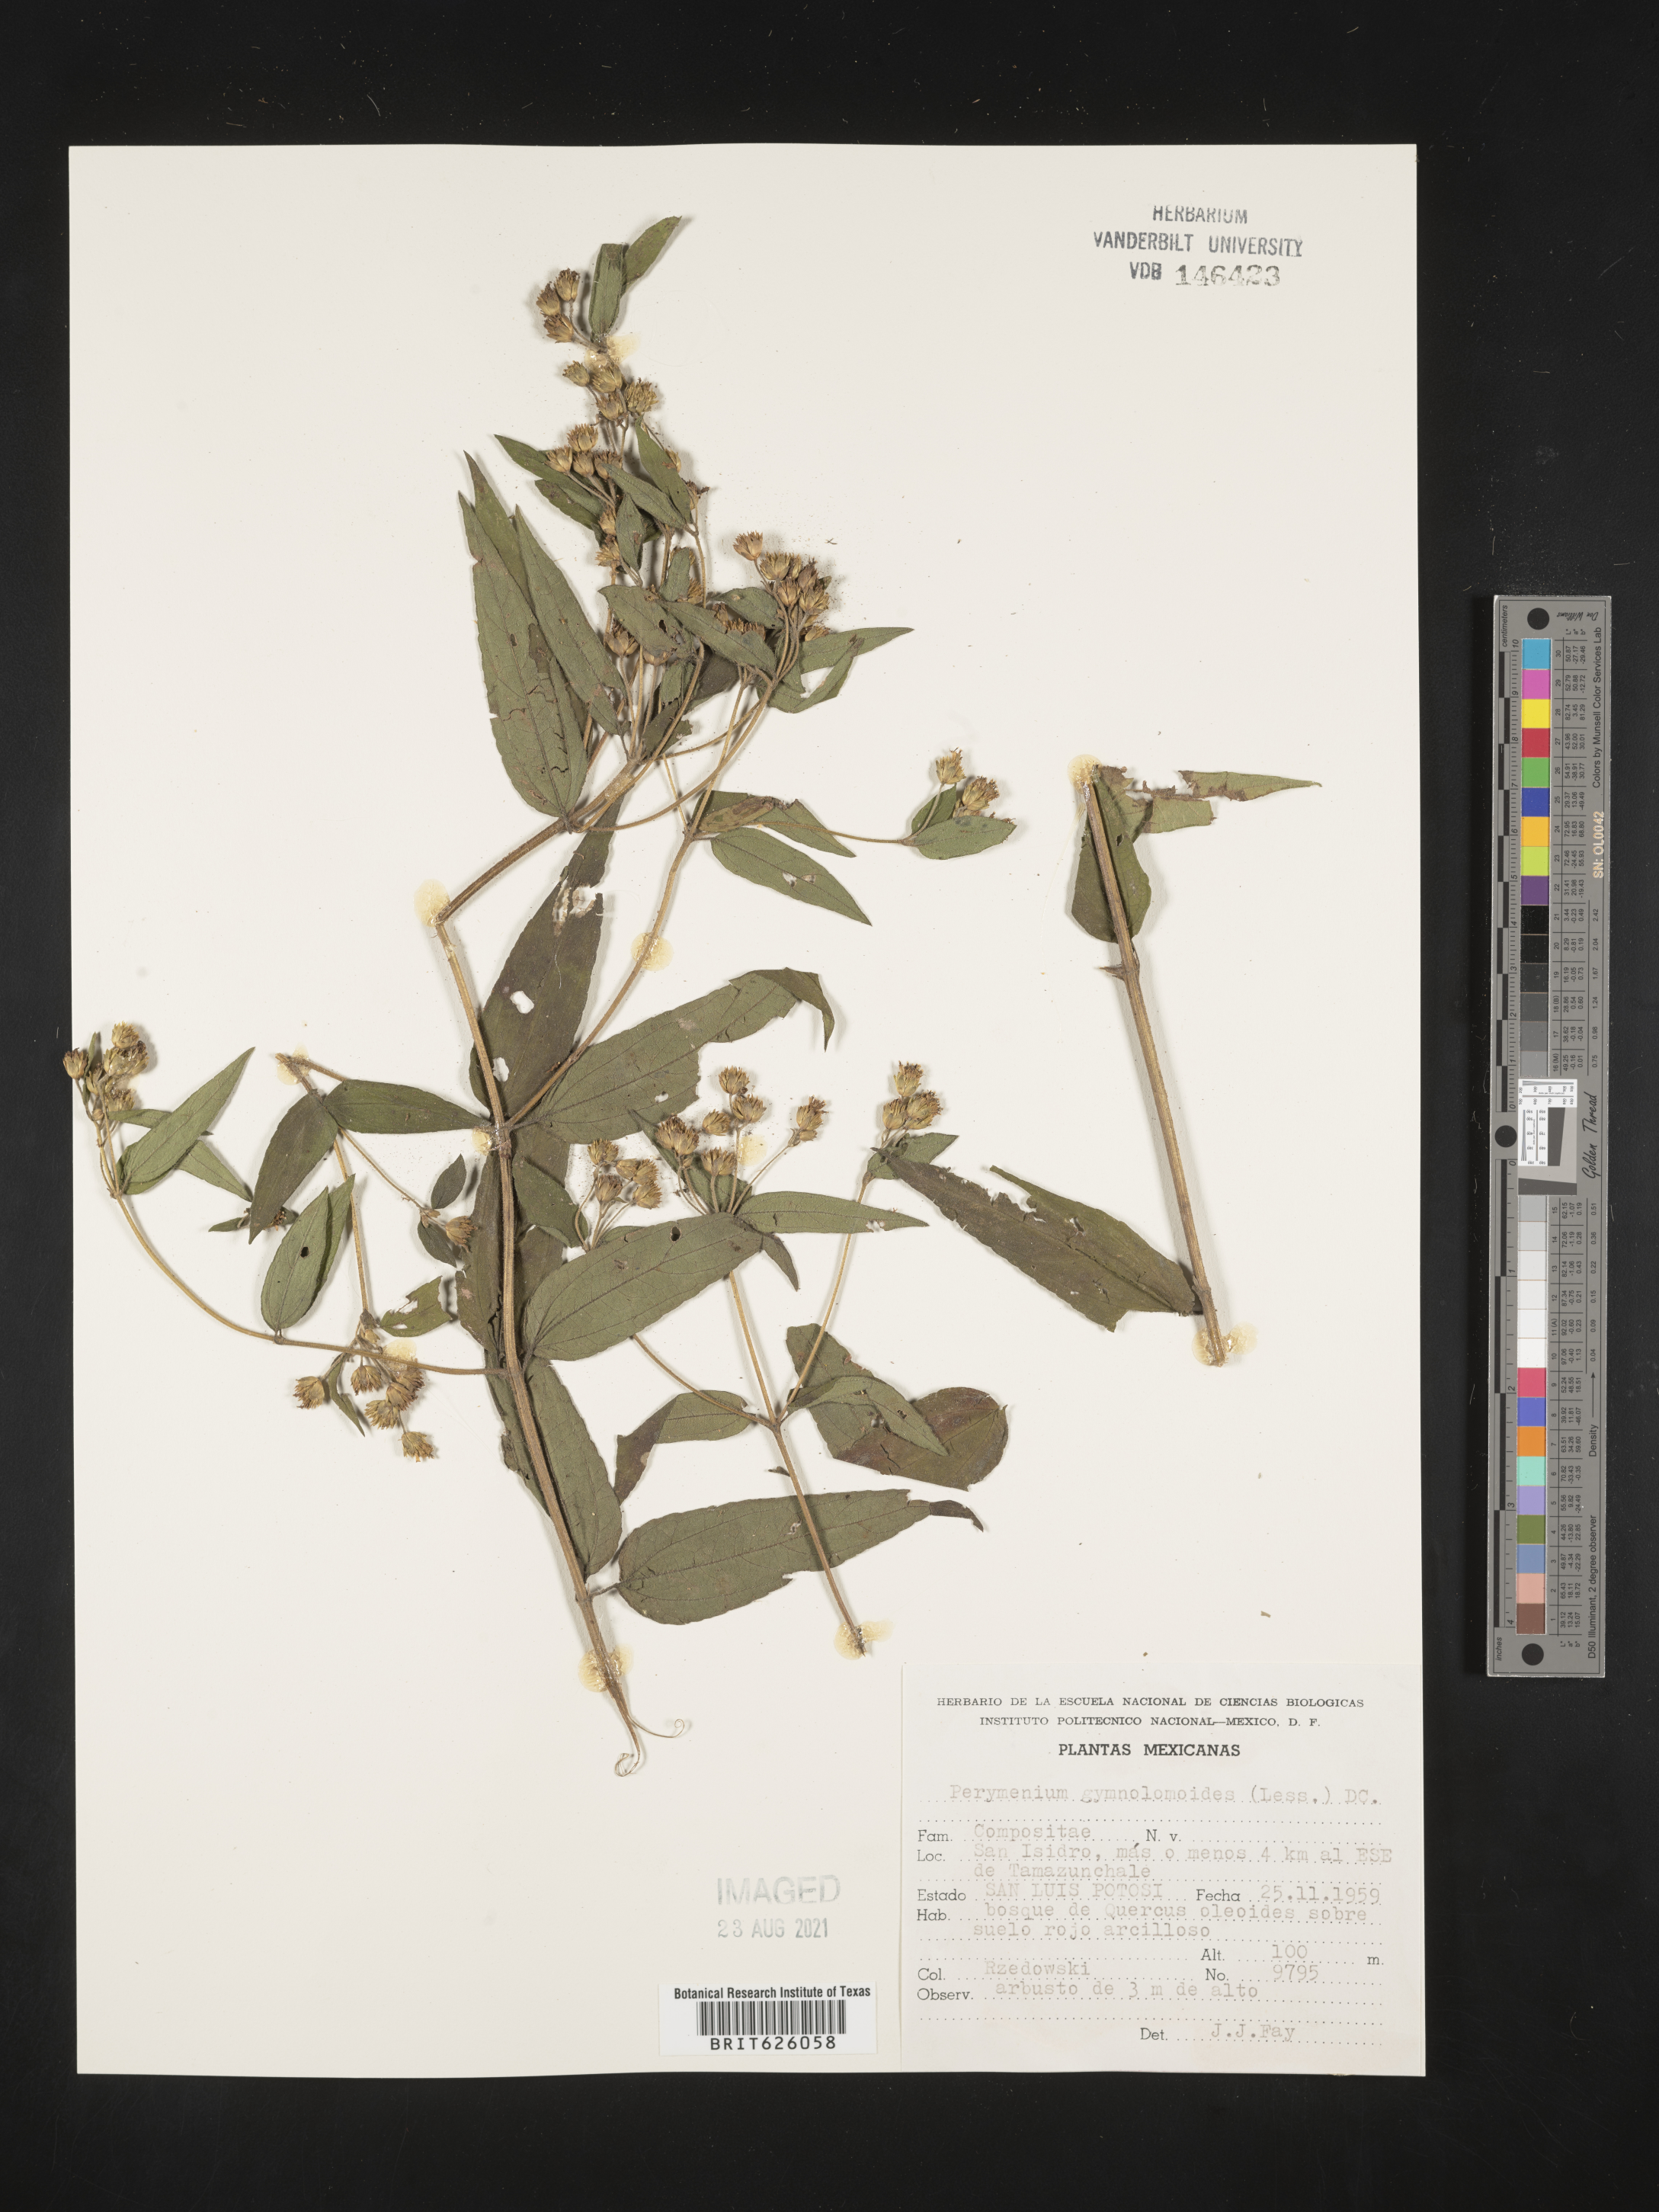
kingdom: Plantae
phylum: Tracheophyta
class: Magnoliopsida
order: Asterales
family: Asteraceae
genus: Perymenium
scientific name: Perymenium
